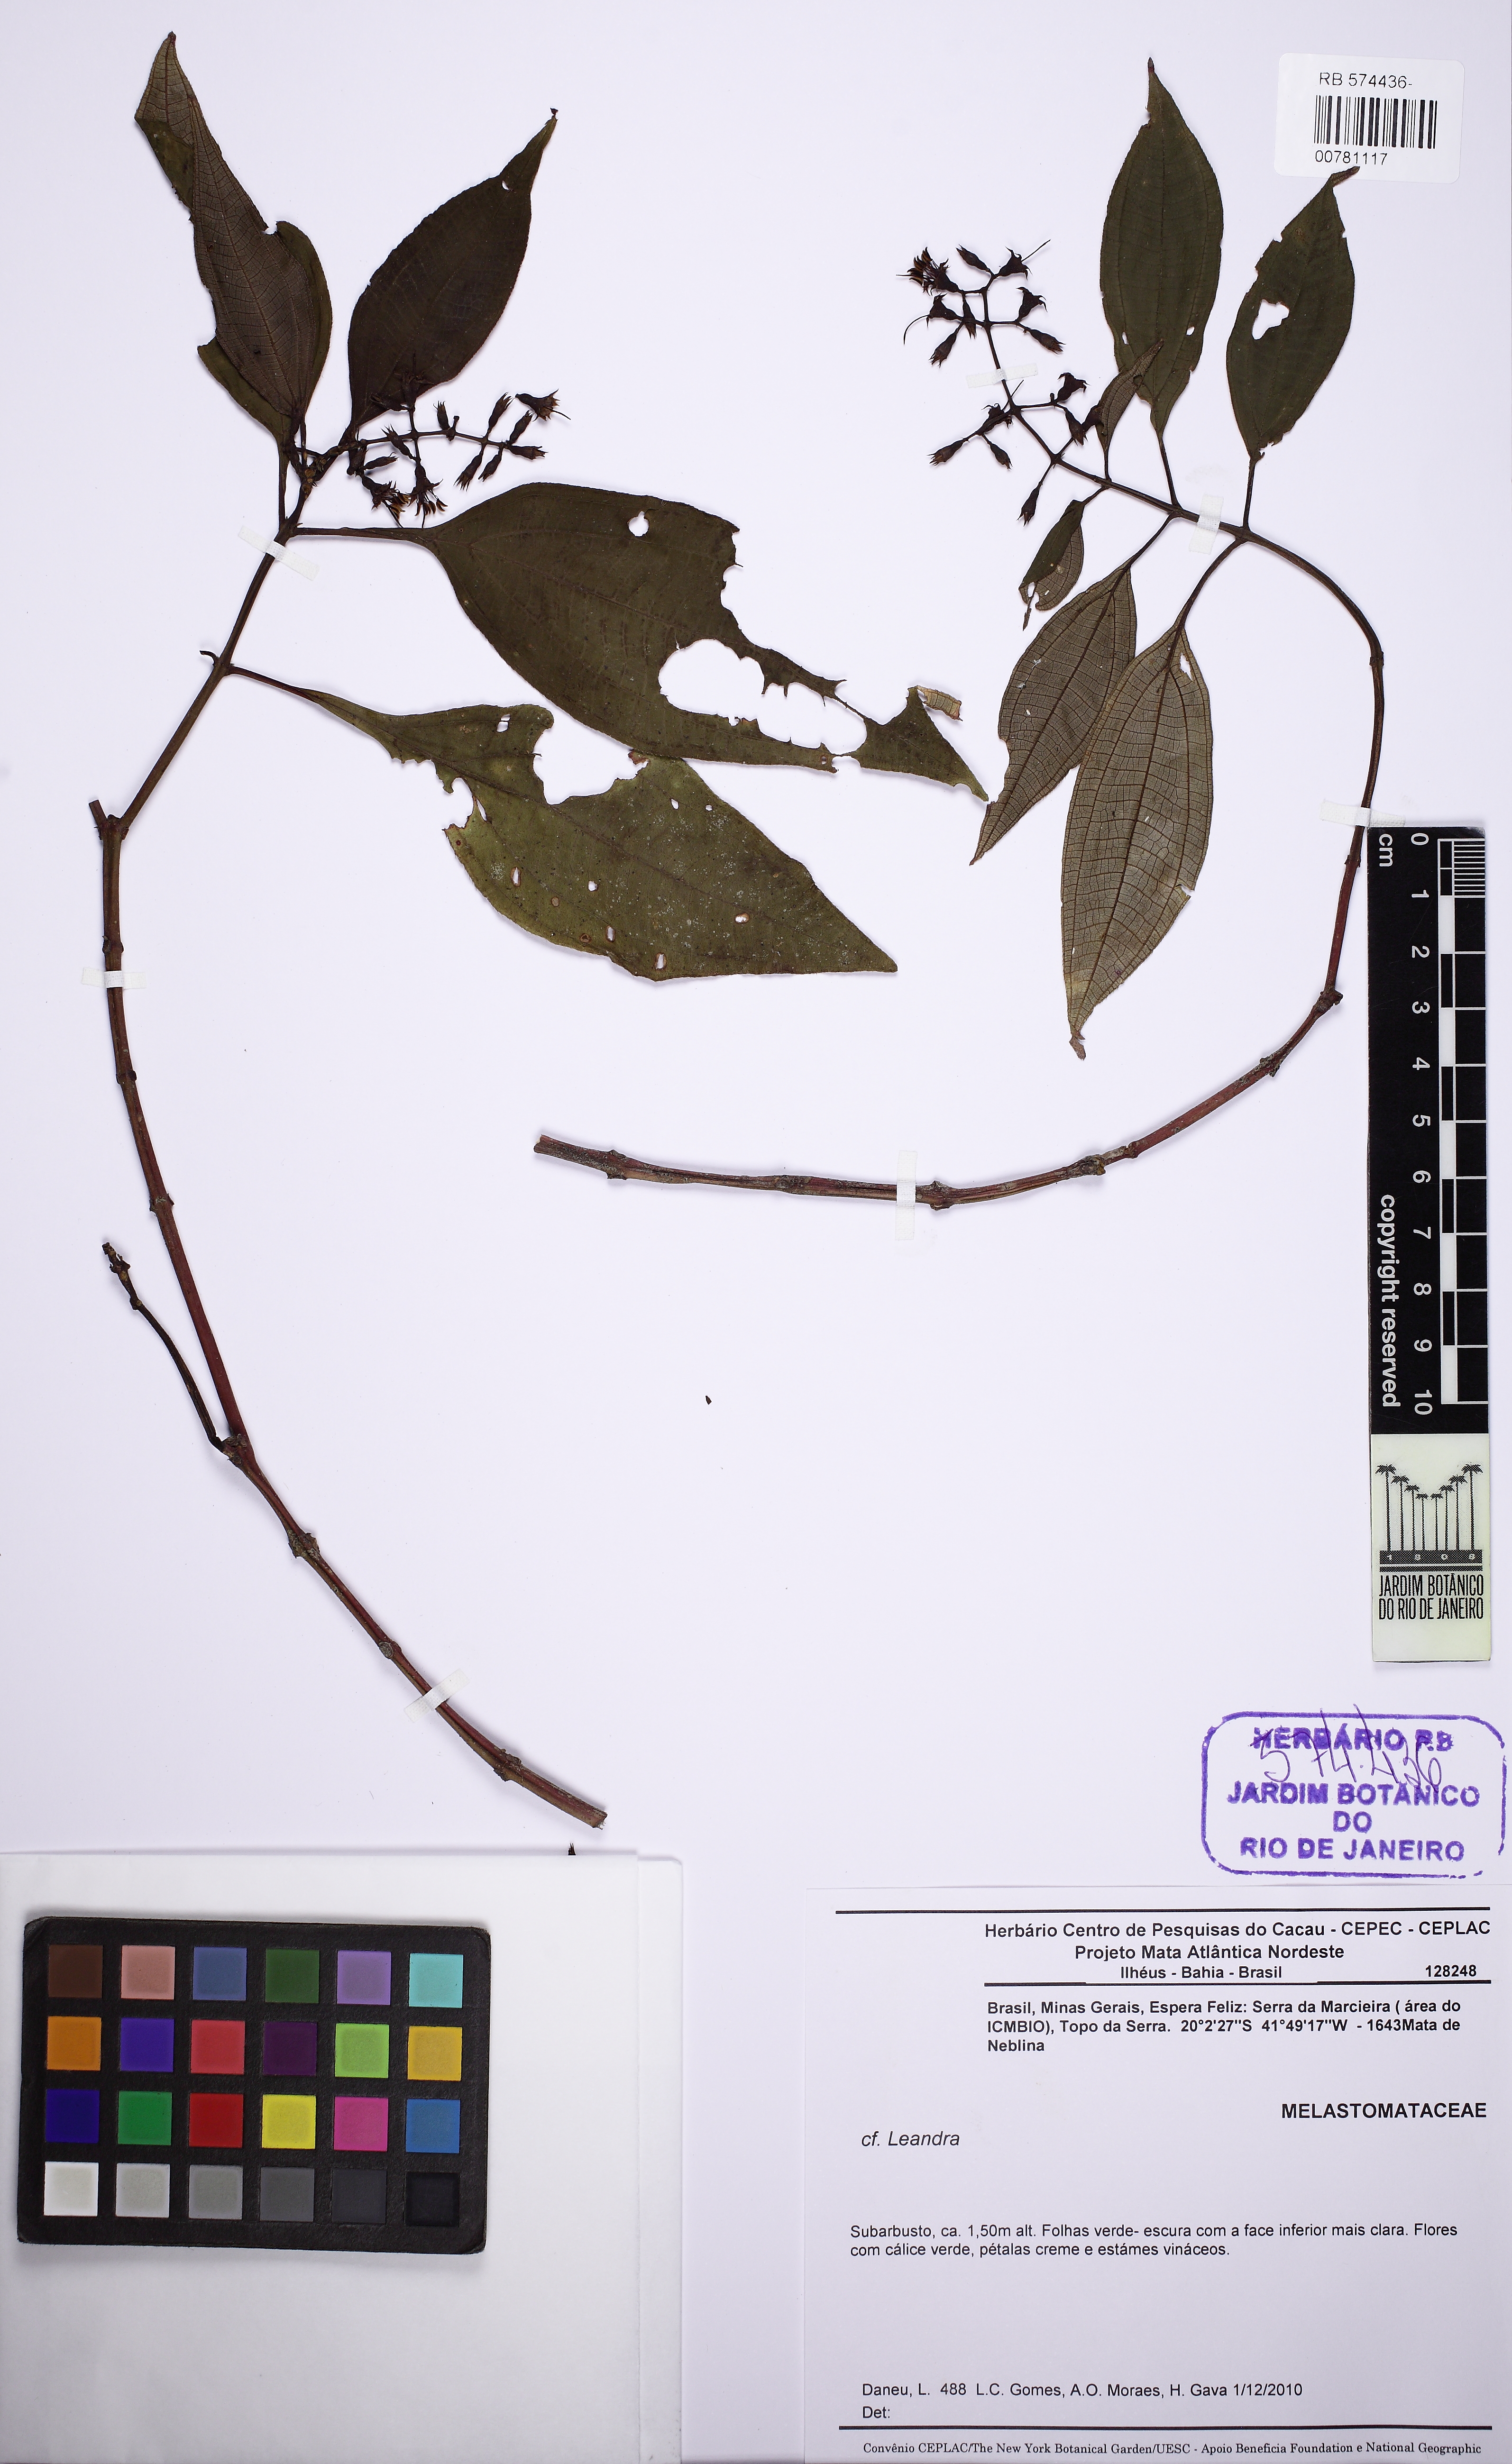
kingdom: Plantae
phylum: Tracheophyta
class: Magnoliopsida
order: Myrtales
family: Melastomataceae
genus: Miconia
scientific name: Miconia
